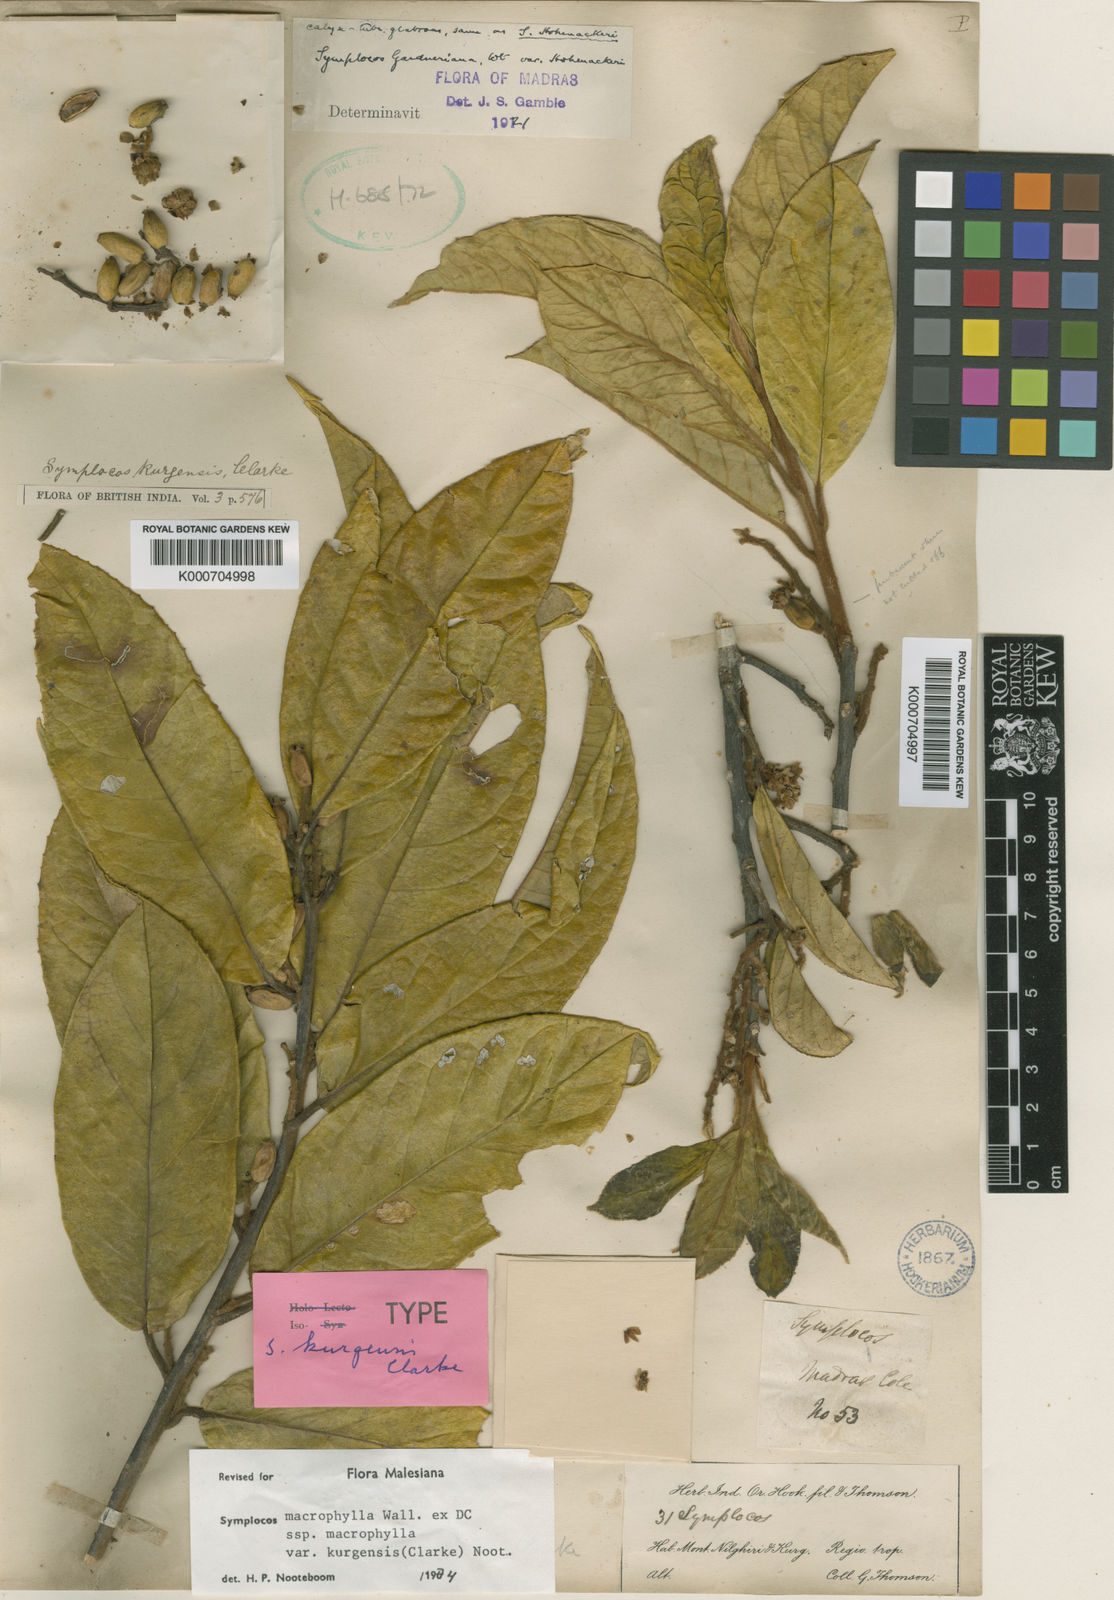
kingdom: Plantae
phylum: Tracheophyta
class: Magnoliopsida
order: Ericales
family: Symplocaceae
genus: Symplocos
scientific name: Symplocos
